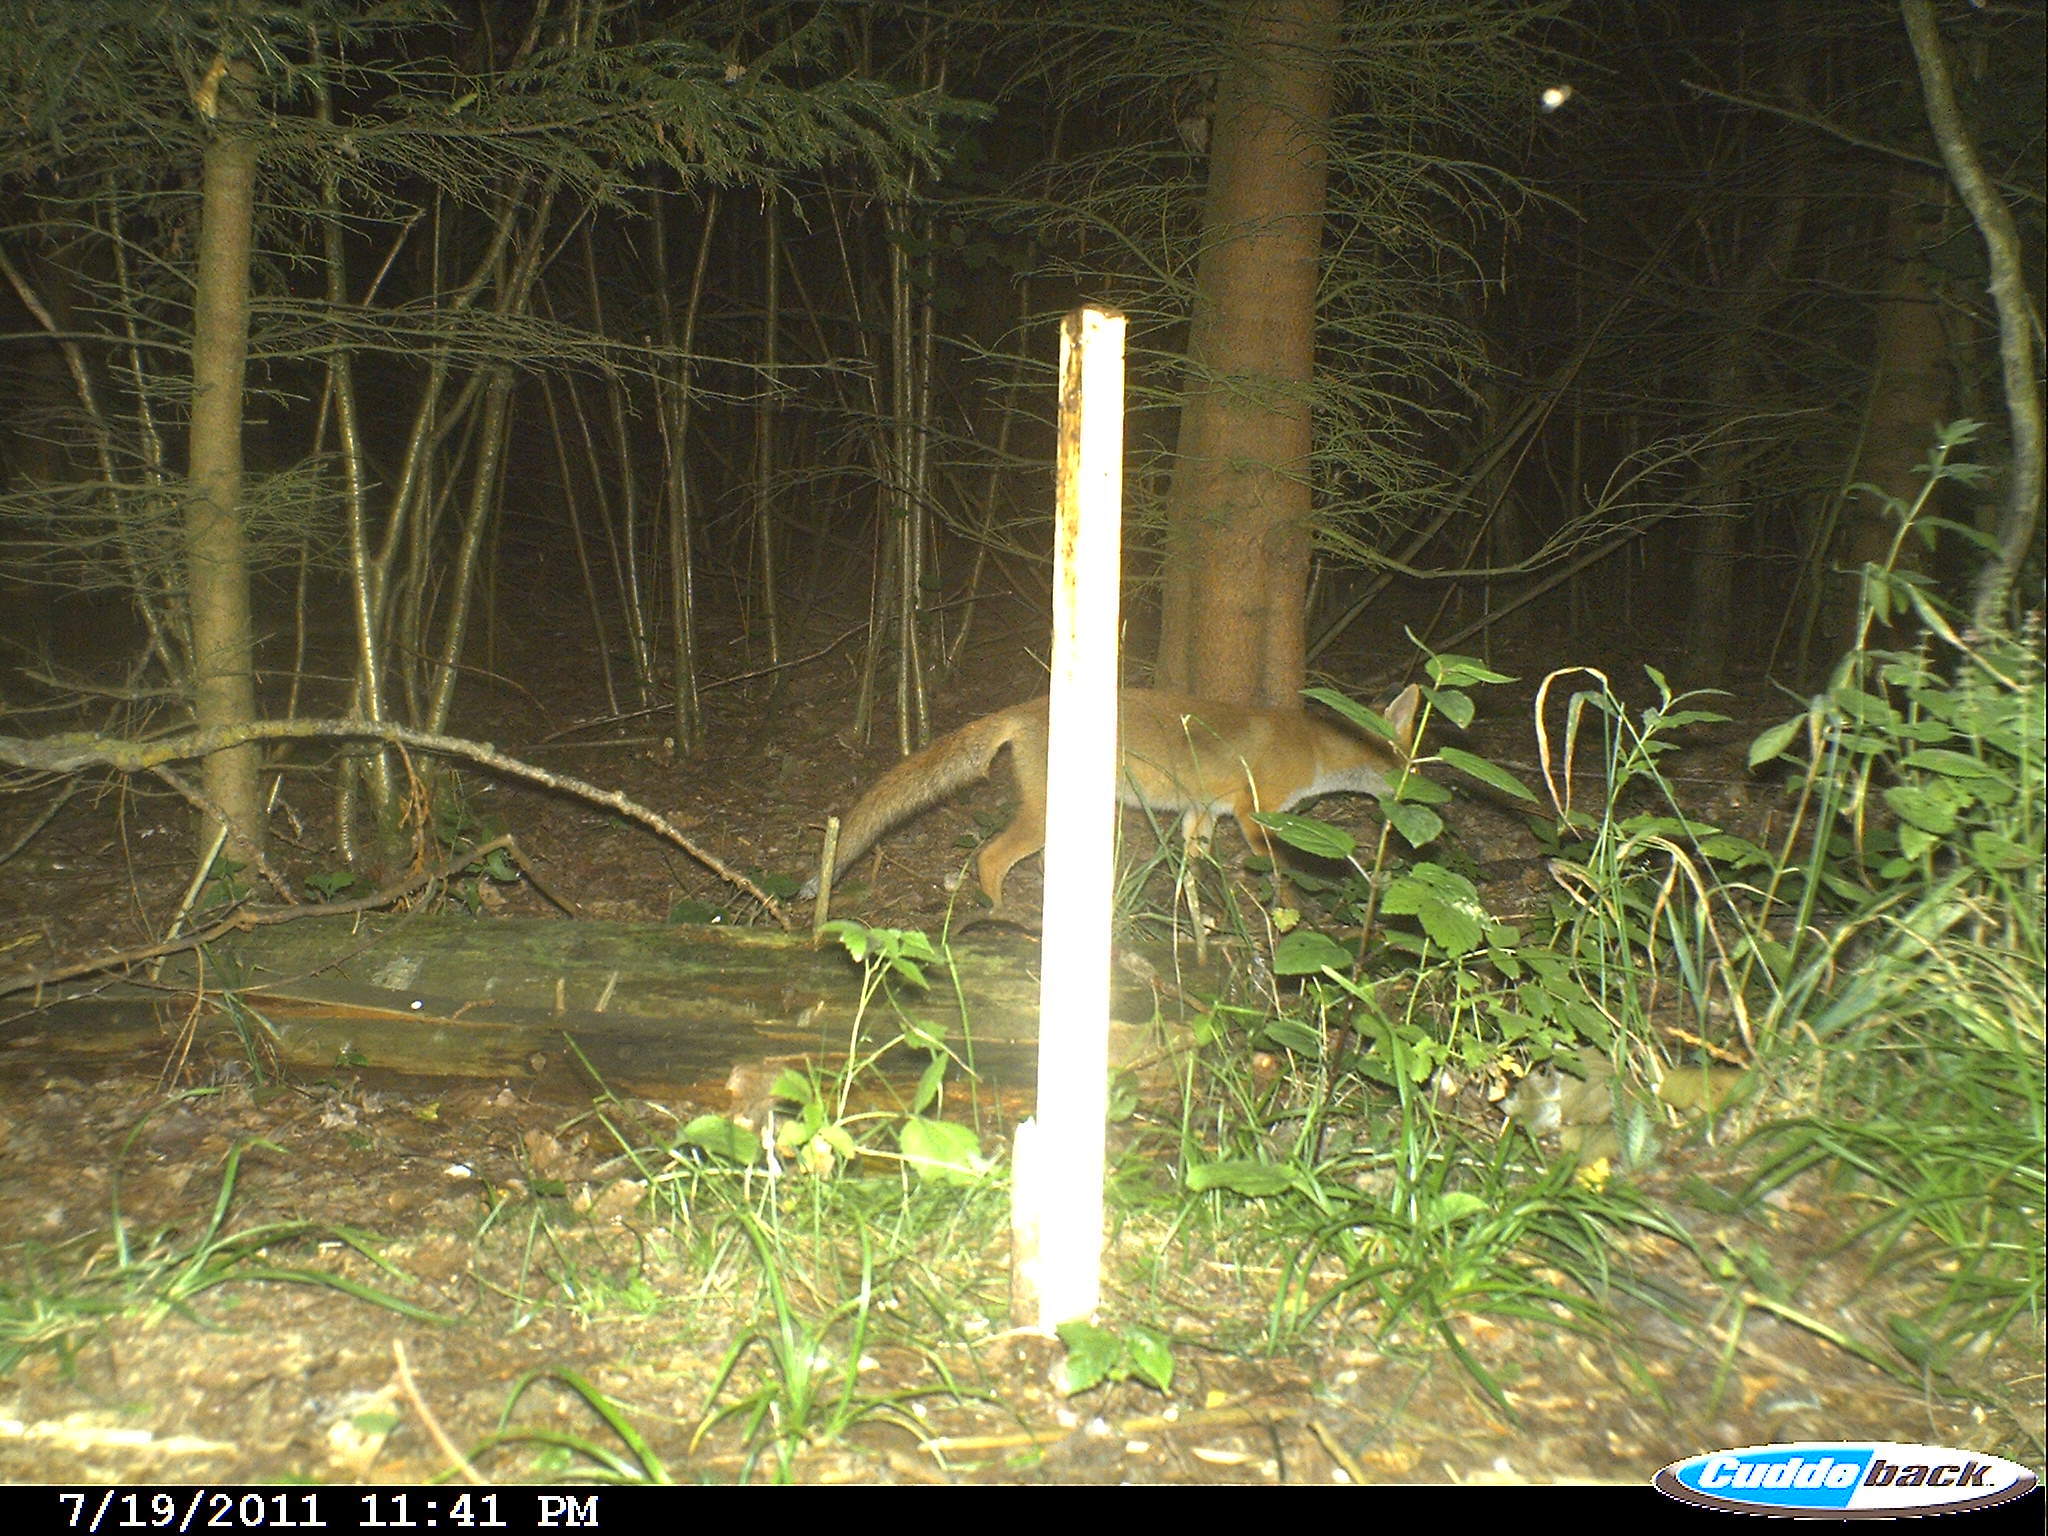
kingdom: Animalia
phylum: Chordata
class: Mammalia
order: Carnivora
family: Canidae
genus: Vulpes
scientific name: Vulpes vulpes
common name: Red fox
